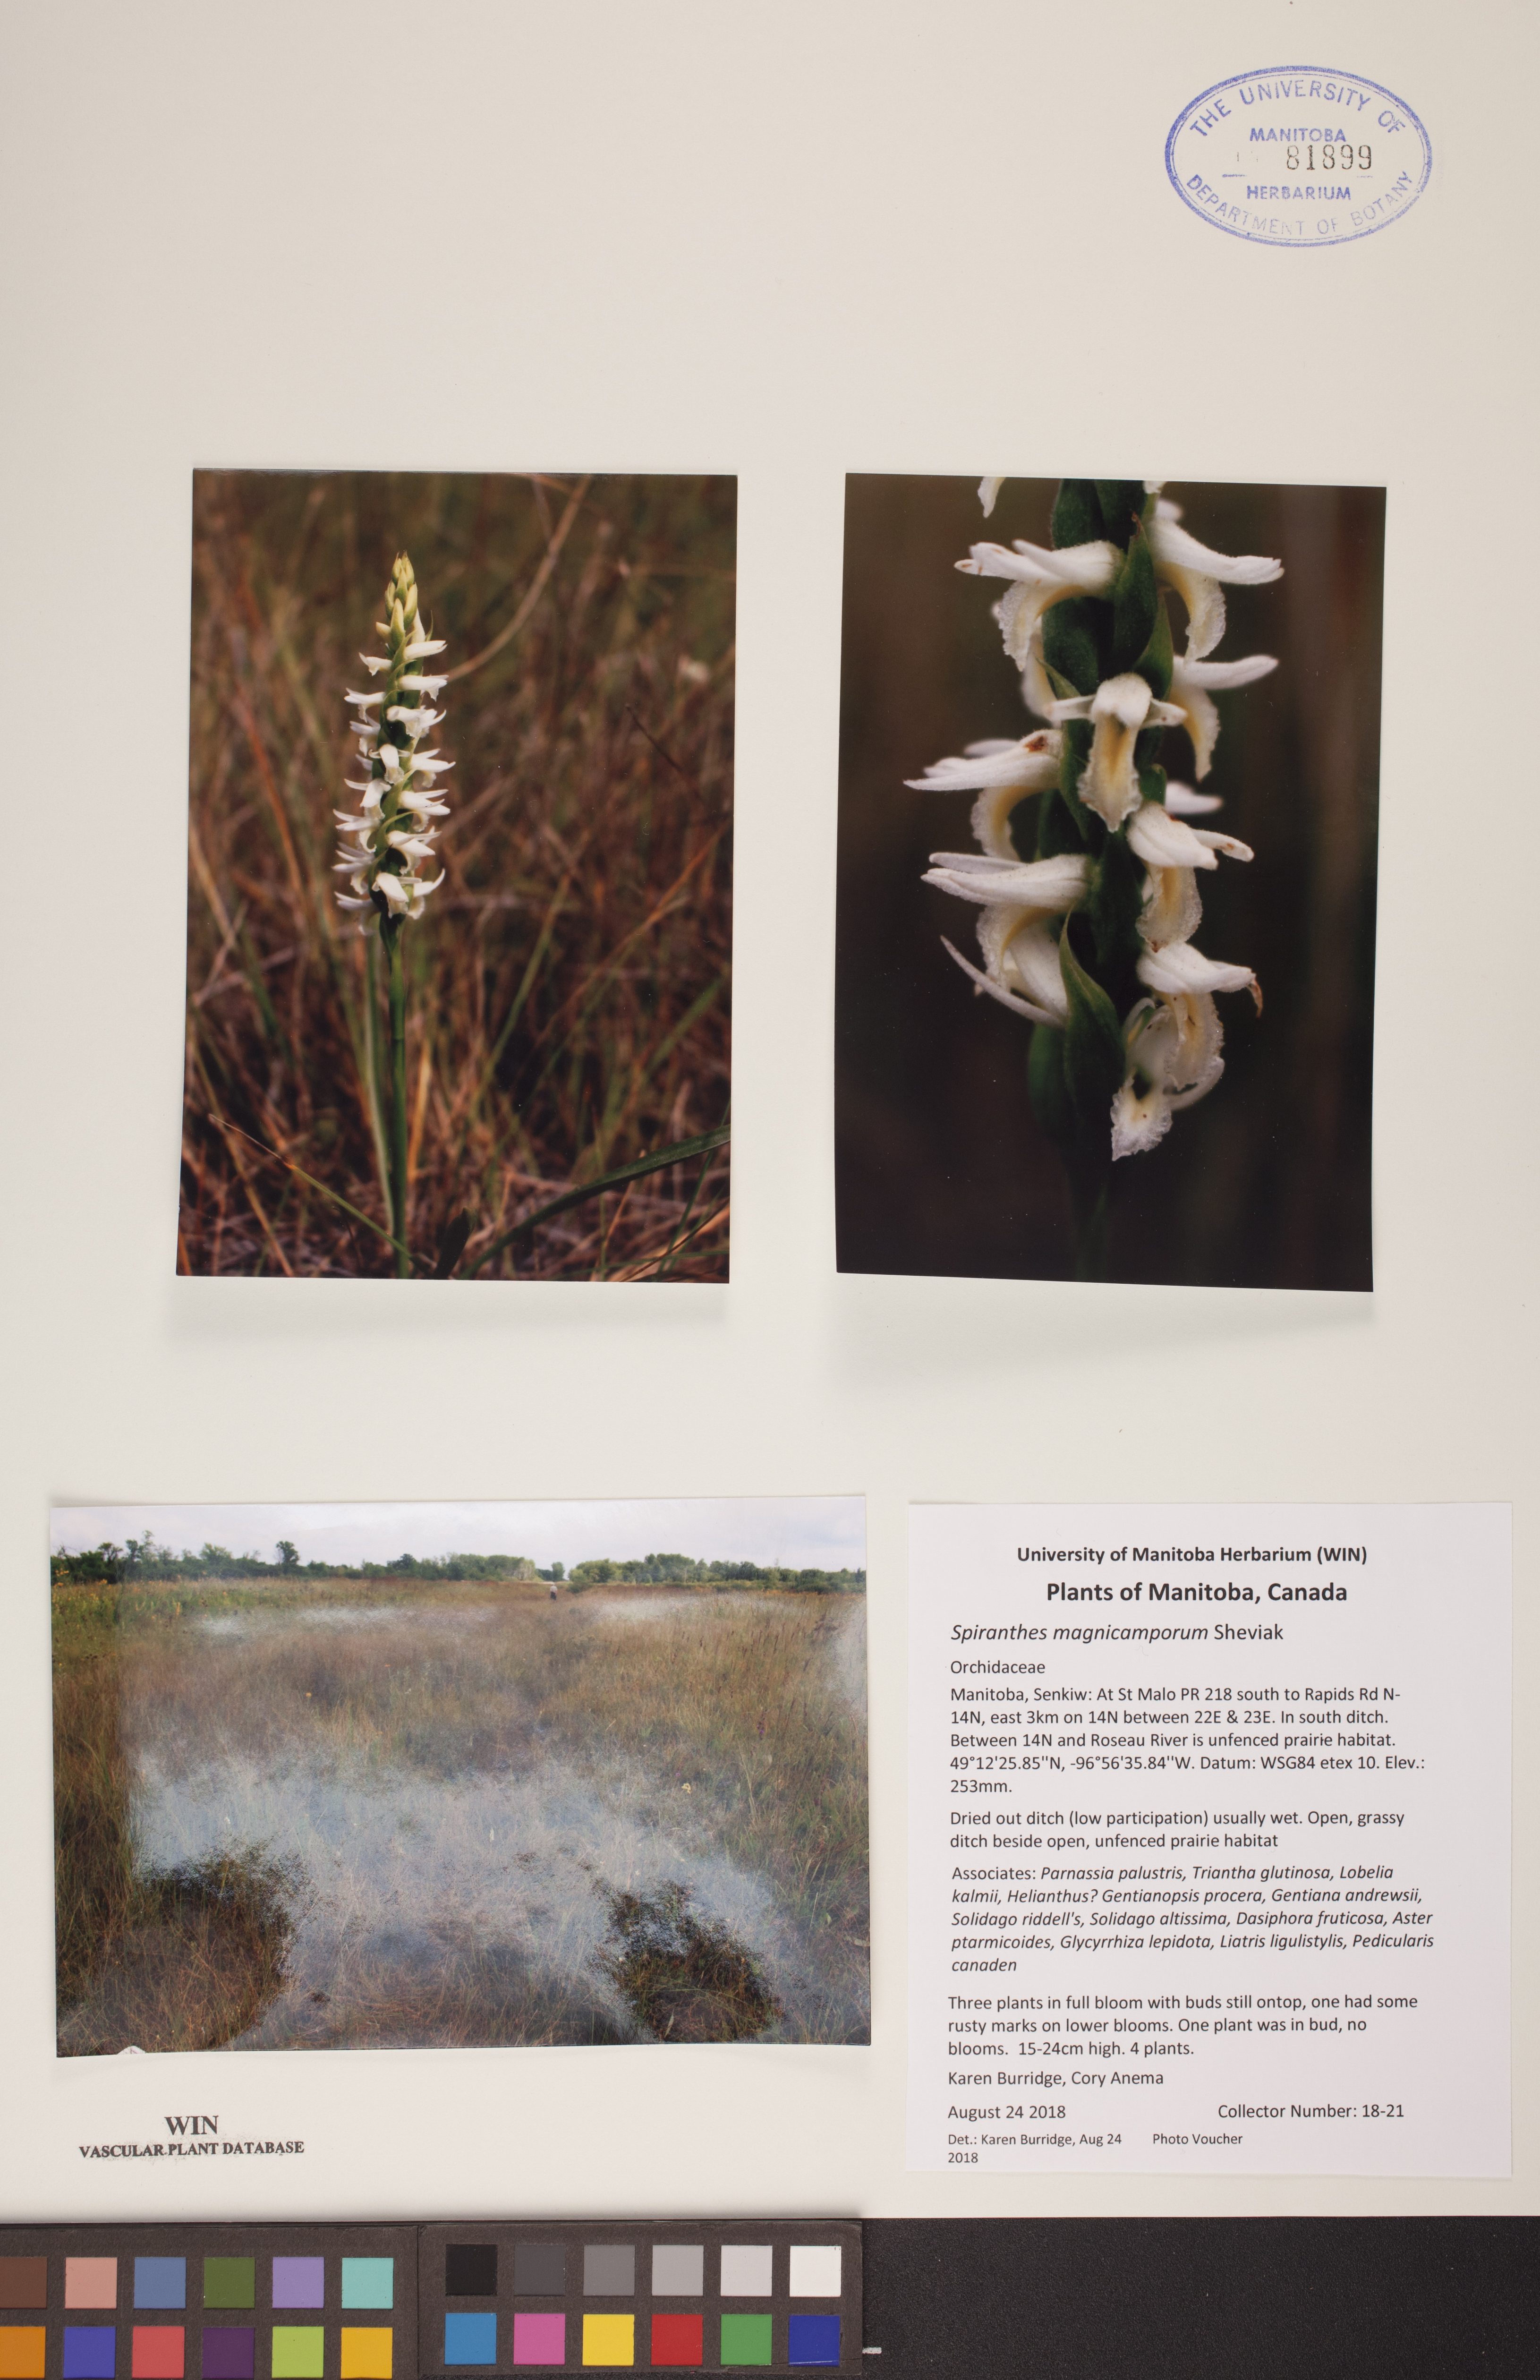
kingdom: Plantae
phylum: Tracheophyta
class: Liliopsida
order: Asparagales
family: Orchidaceae
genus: Spiranthes
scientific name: Spiranthes magnicamporum
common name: Great plains ladies'-tresses
